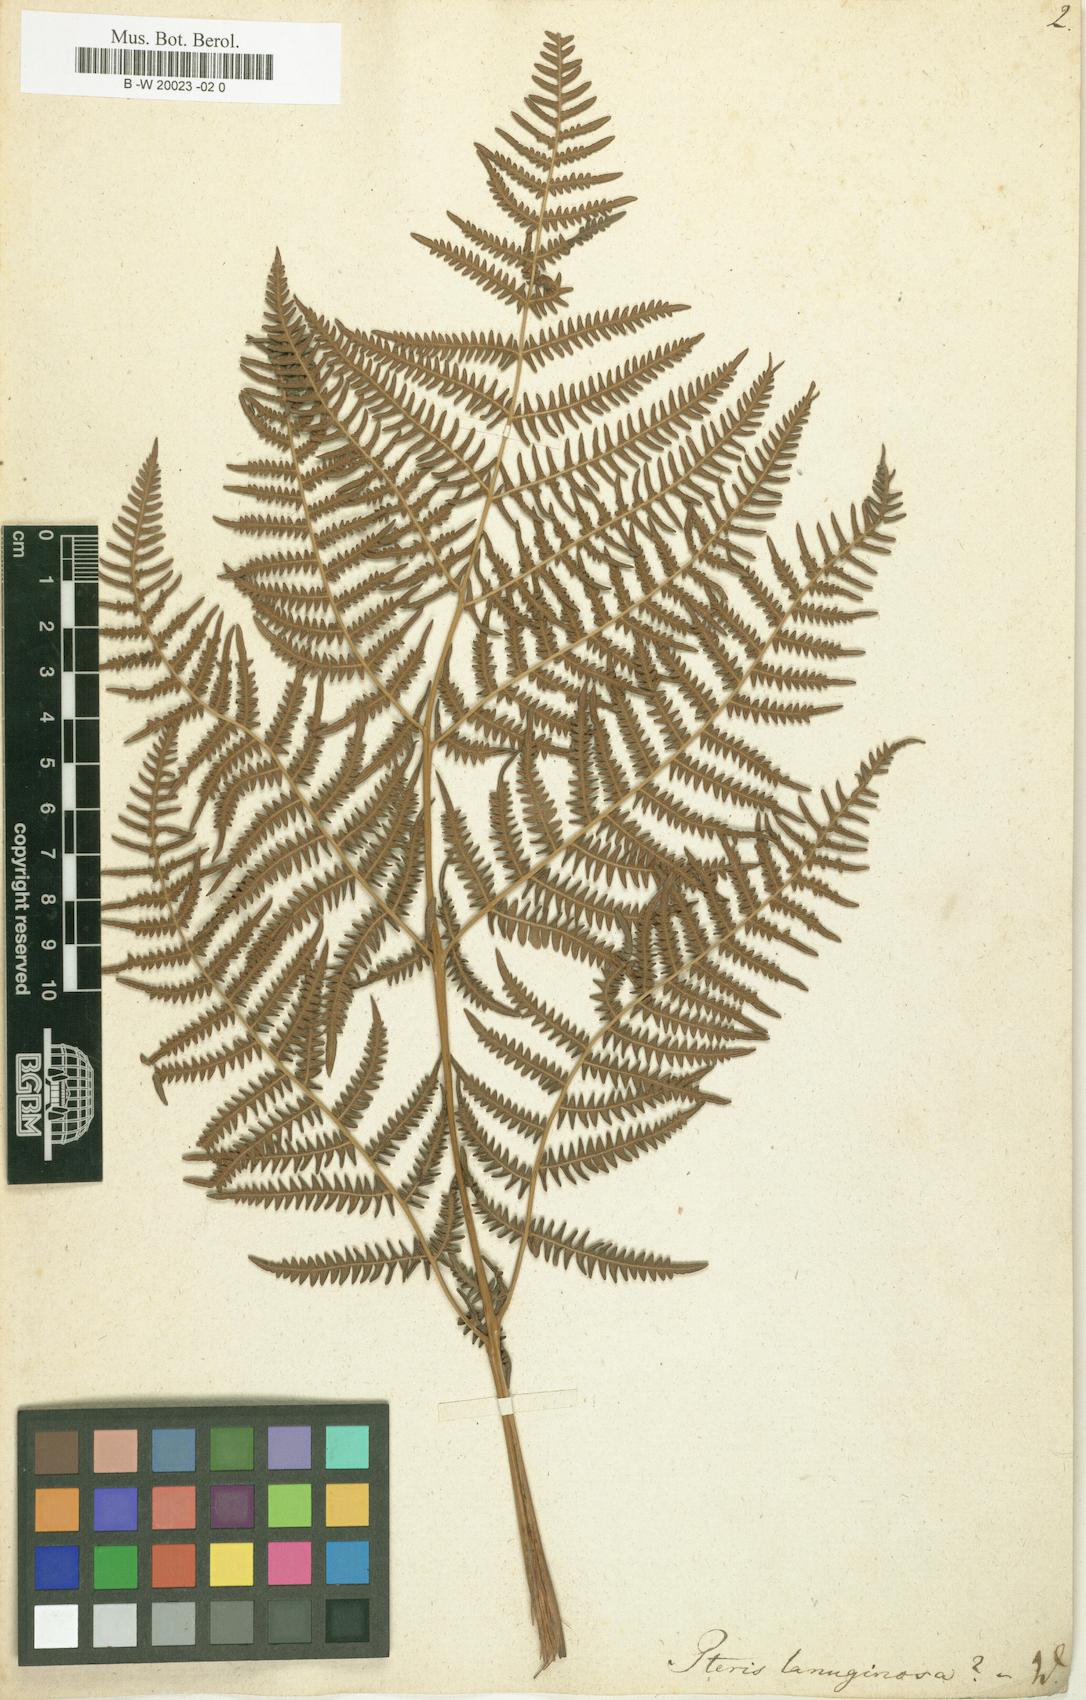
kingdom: Plantae
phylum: Tracheophyta
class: Polypodiopsida
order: Polypodiales
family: Dennstaedtiaceae
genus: Pteridium
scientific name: Pteridium aquilinum
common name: Bracken
